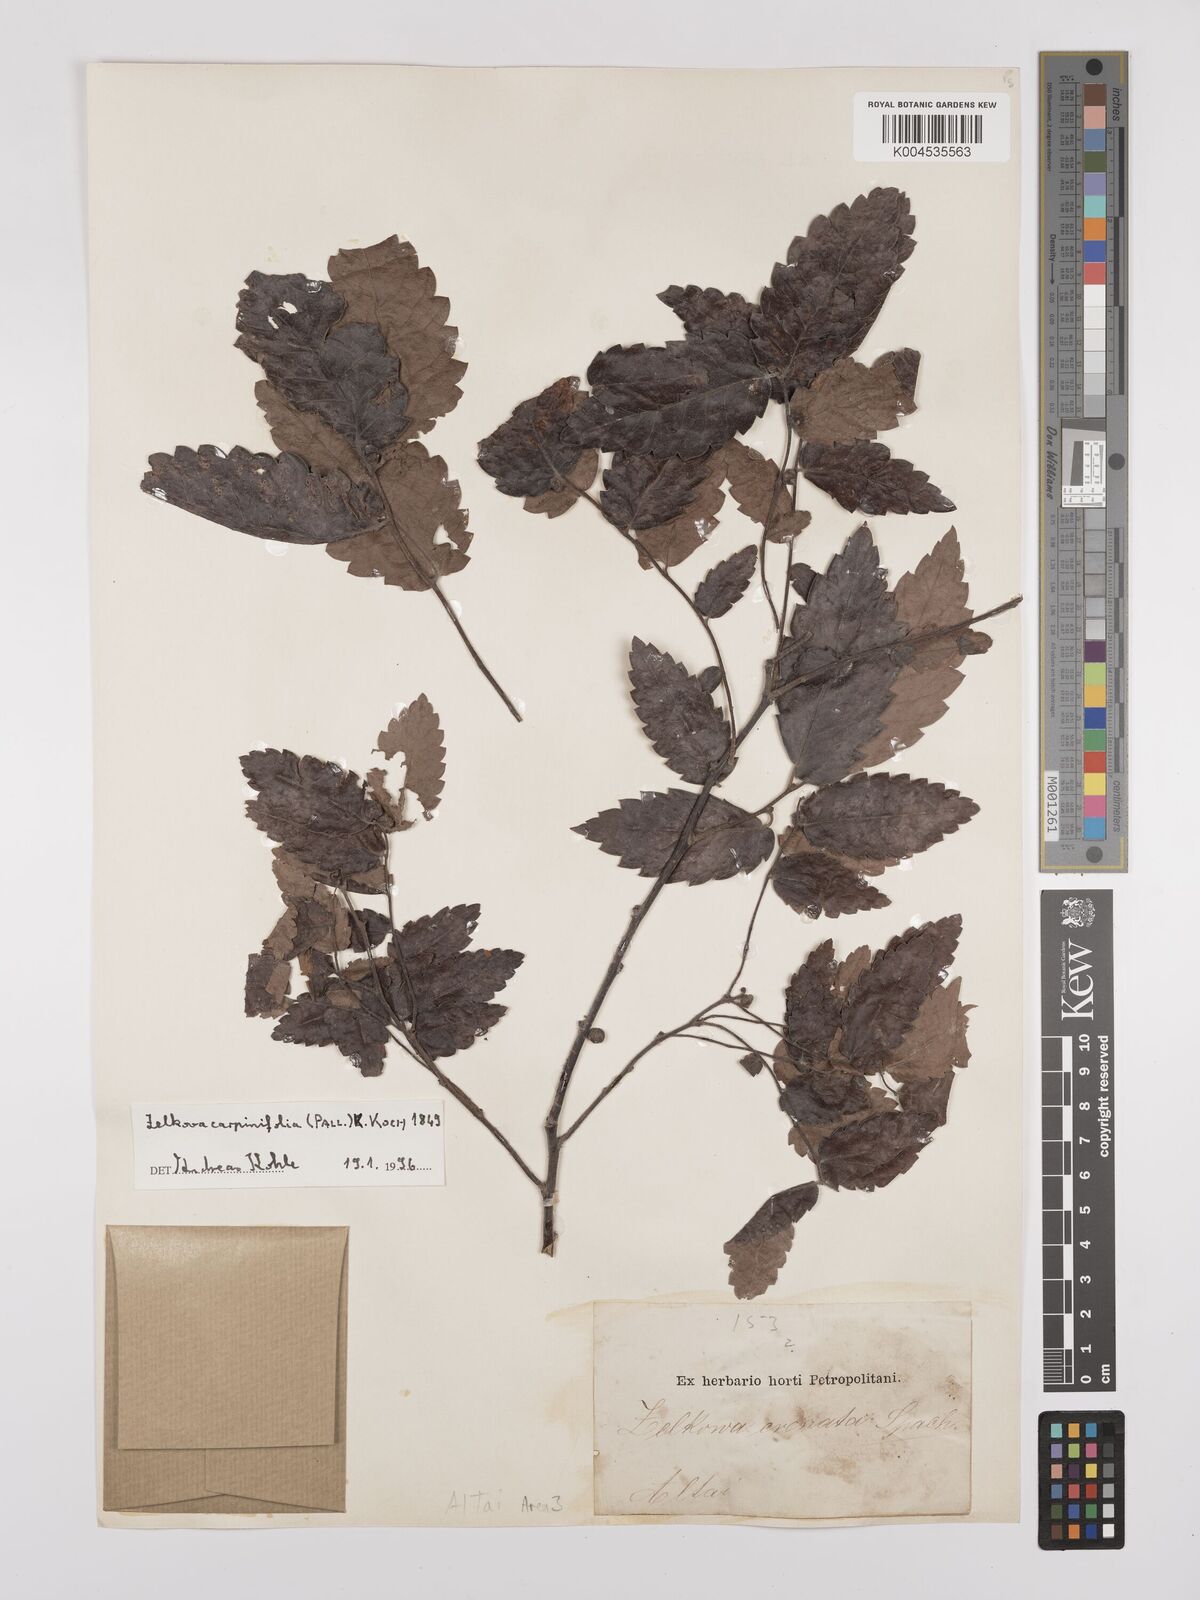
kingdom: Plantae
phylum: Tracheophyta
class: Magnoliopsida
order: Rosales
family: Ulmaceae
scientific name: Ulmaceae
